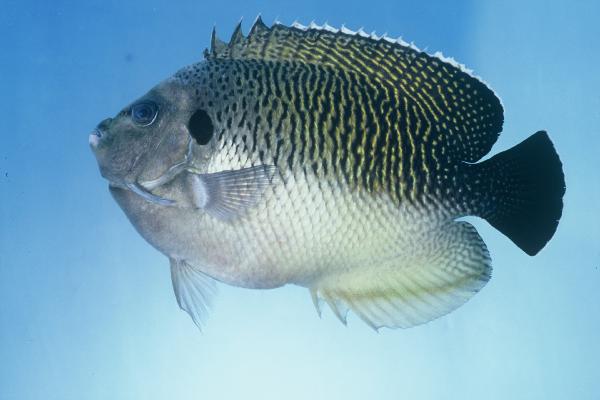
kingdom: Animalia
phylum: Chordata
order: Perciformes
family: Pomacanthidae
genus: Apolemichthys
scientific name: Apolemichthys kingi
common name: Tiger angelfish
